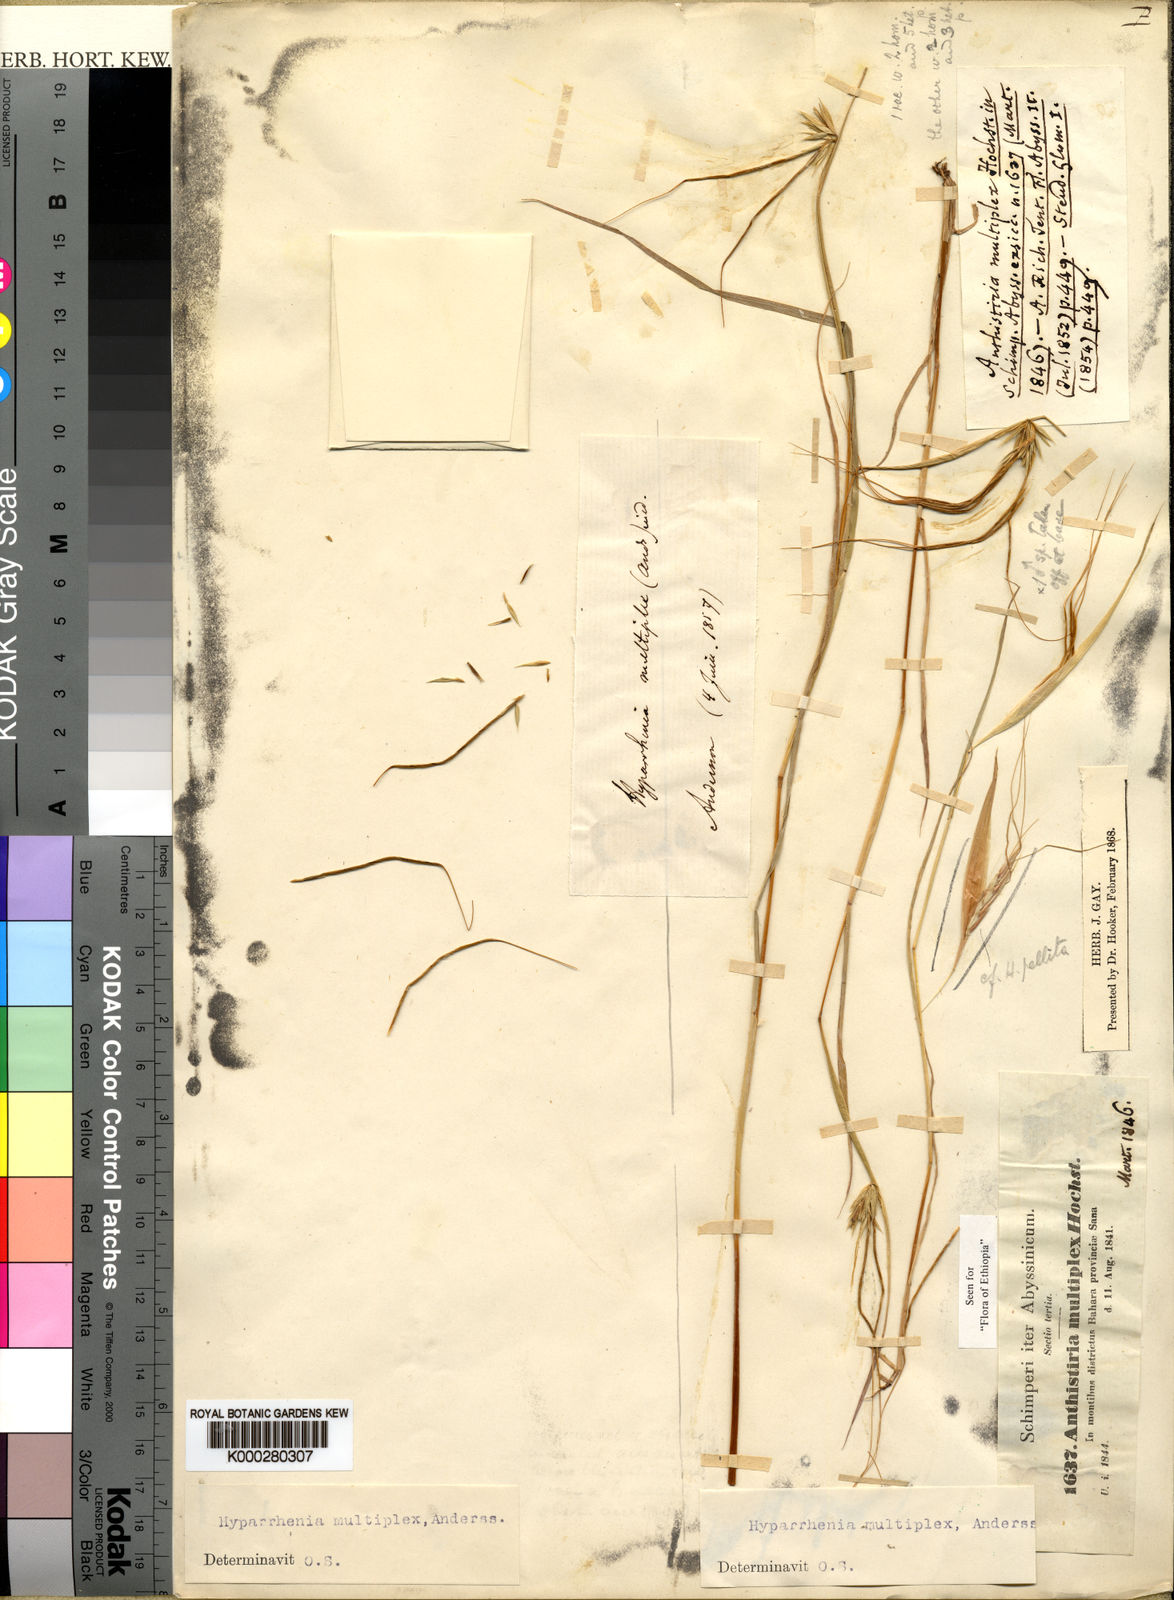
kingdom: Plantae
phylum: Tracheophyta
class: Liliopsida
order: Poales
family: Poaceae
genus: Hyparrhenia
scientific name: Hyparrhenia
